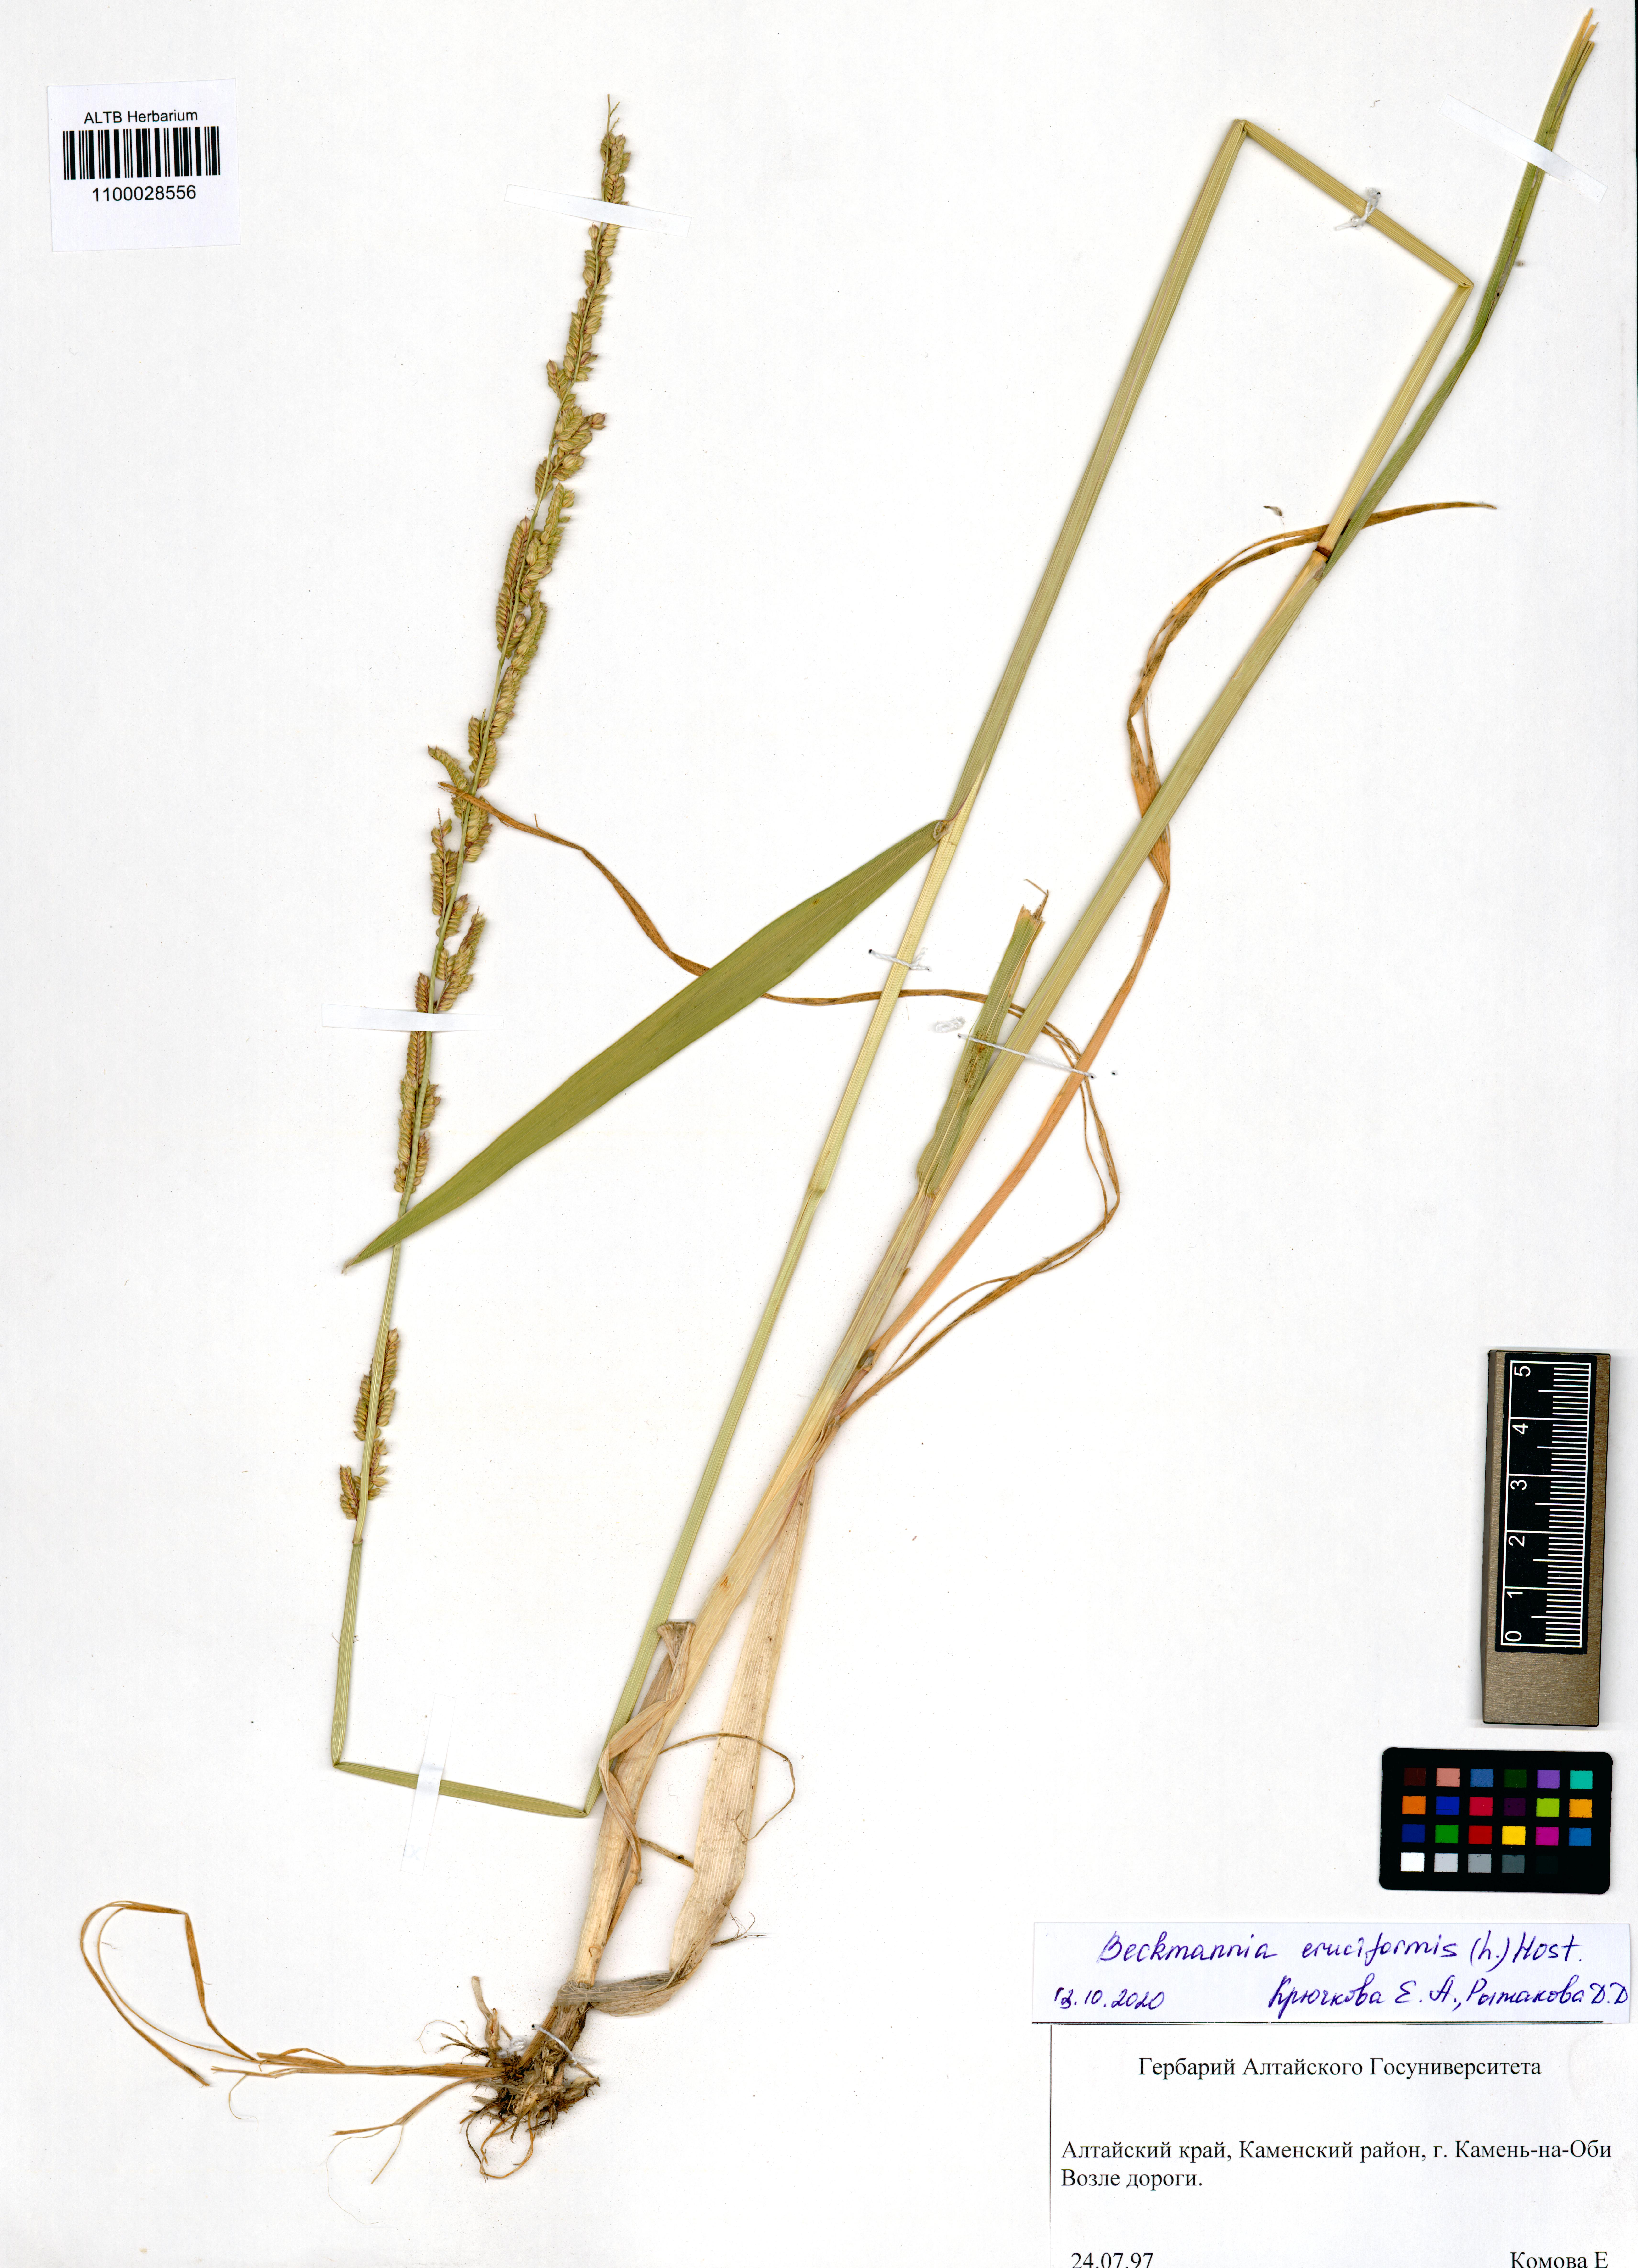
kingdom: Plantae
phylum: Tracheophyta
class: Liliopsida
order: Poales
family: Poaceae
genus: Beckmannia
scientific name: Beckmannia eruciformis
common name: European slough-grass
